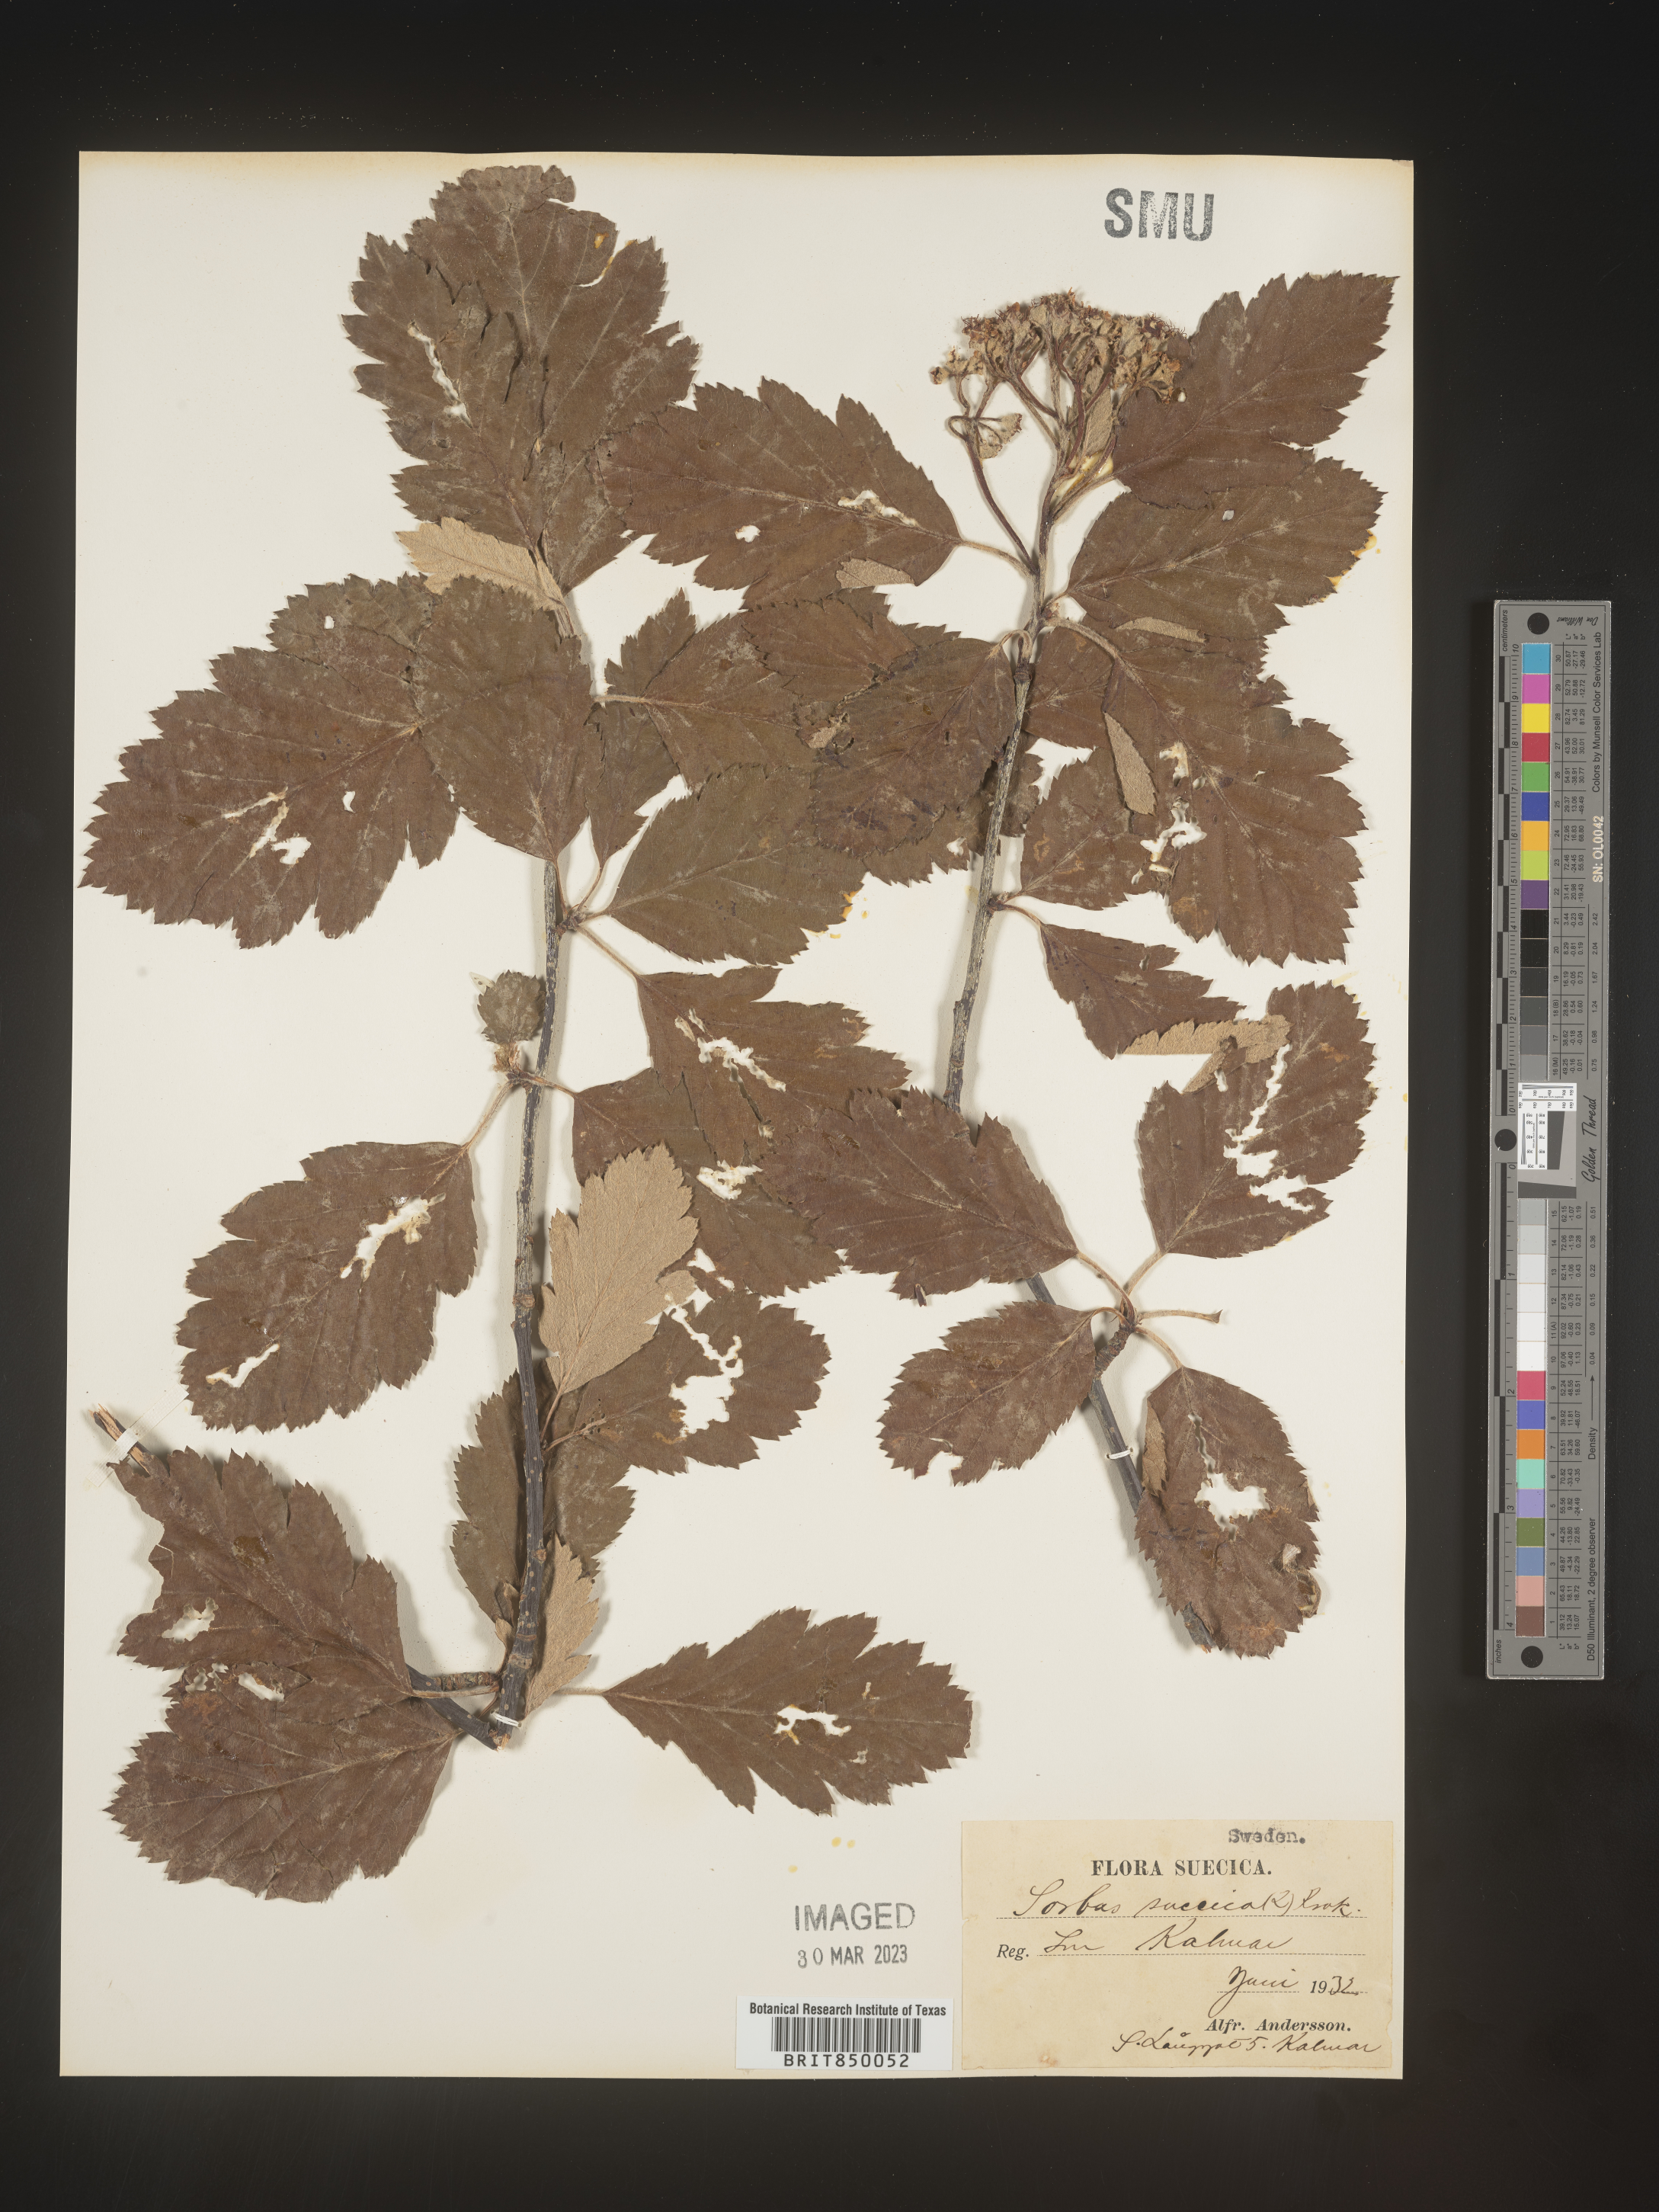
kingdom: Plantae
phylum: Tracheophyta
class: Magnoliopsida
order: Rosales
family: Rosaceae
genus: Sorbus
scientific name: Sorbus
